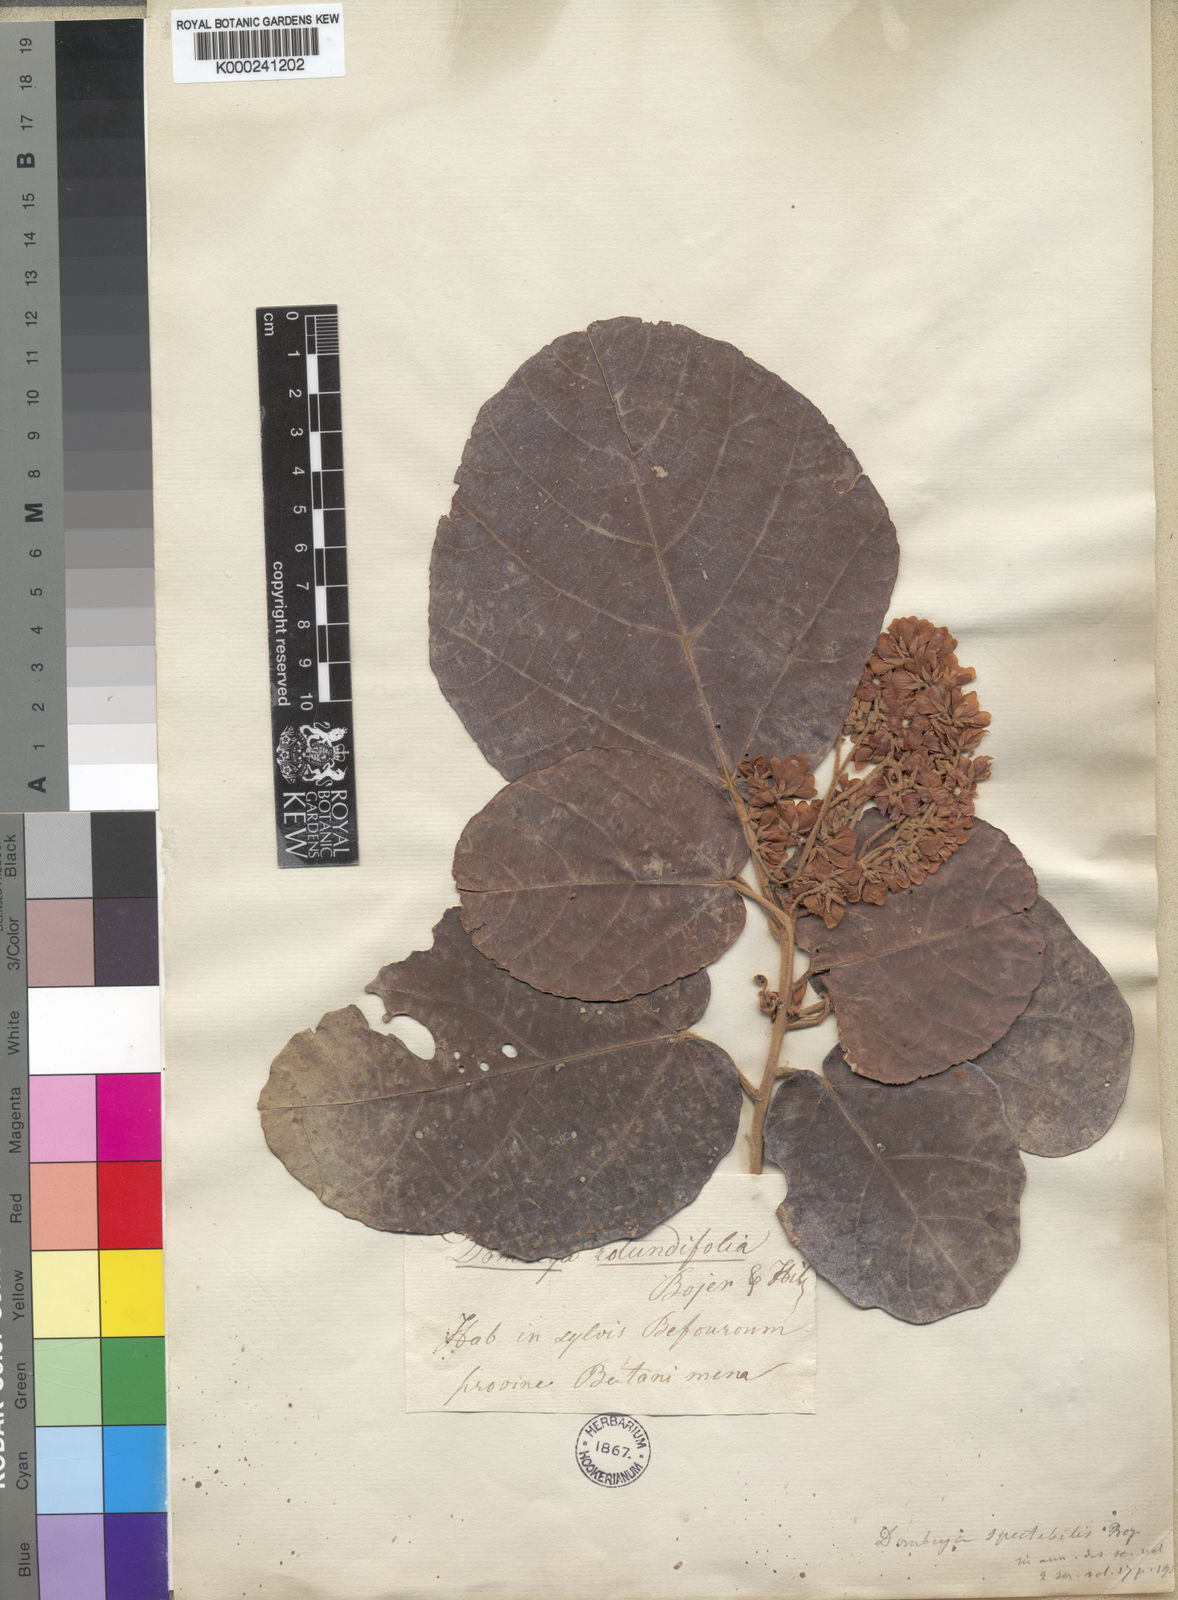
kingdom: Plantae
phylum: Tracheophyta
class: Magnoliopsida
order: Malvales
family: Malvaceae
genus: Dombeya
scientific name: Dombeya
